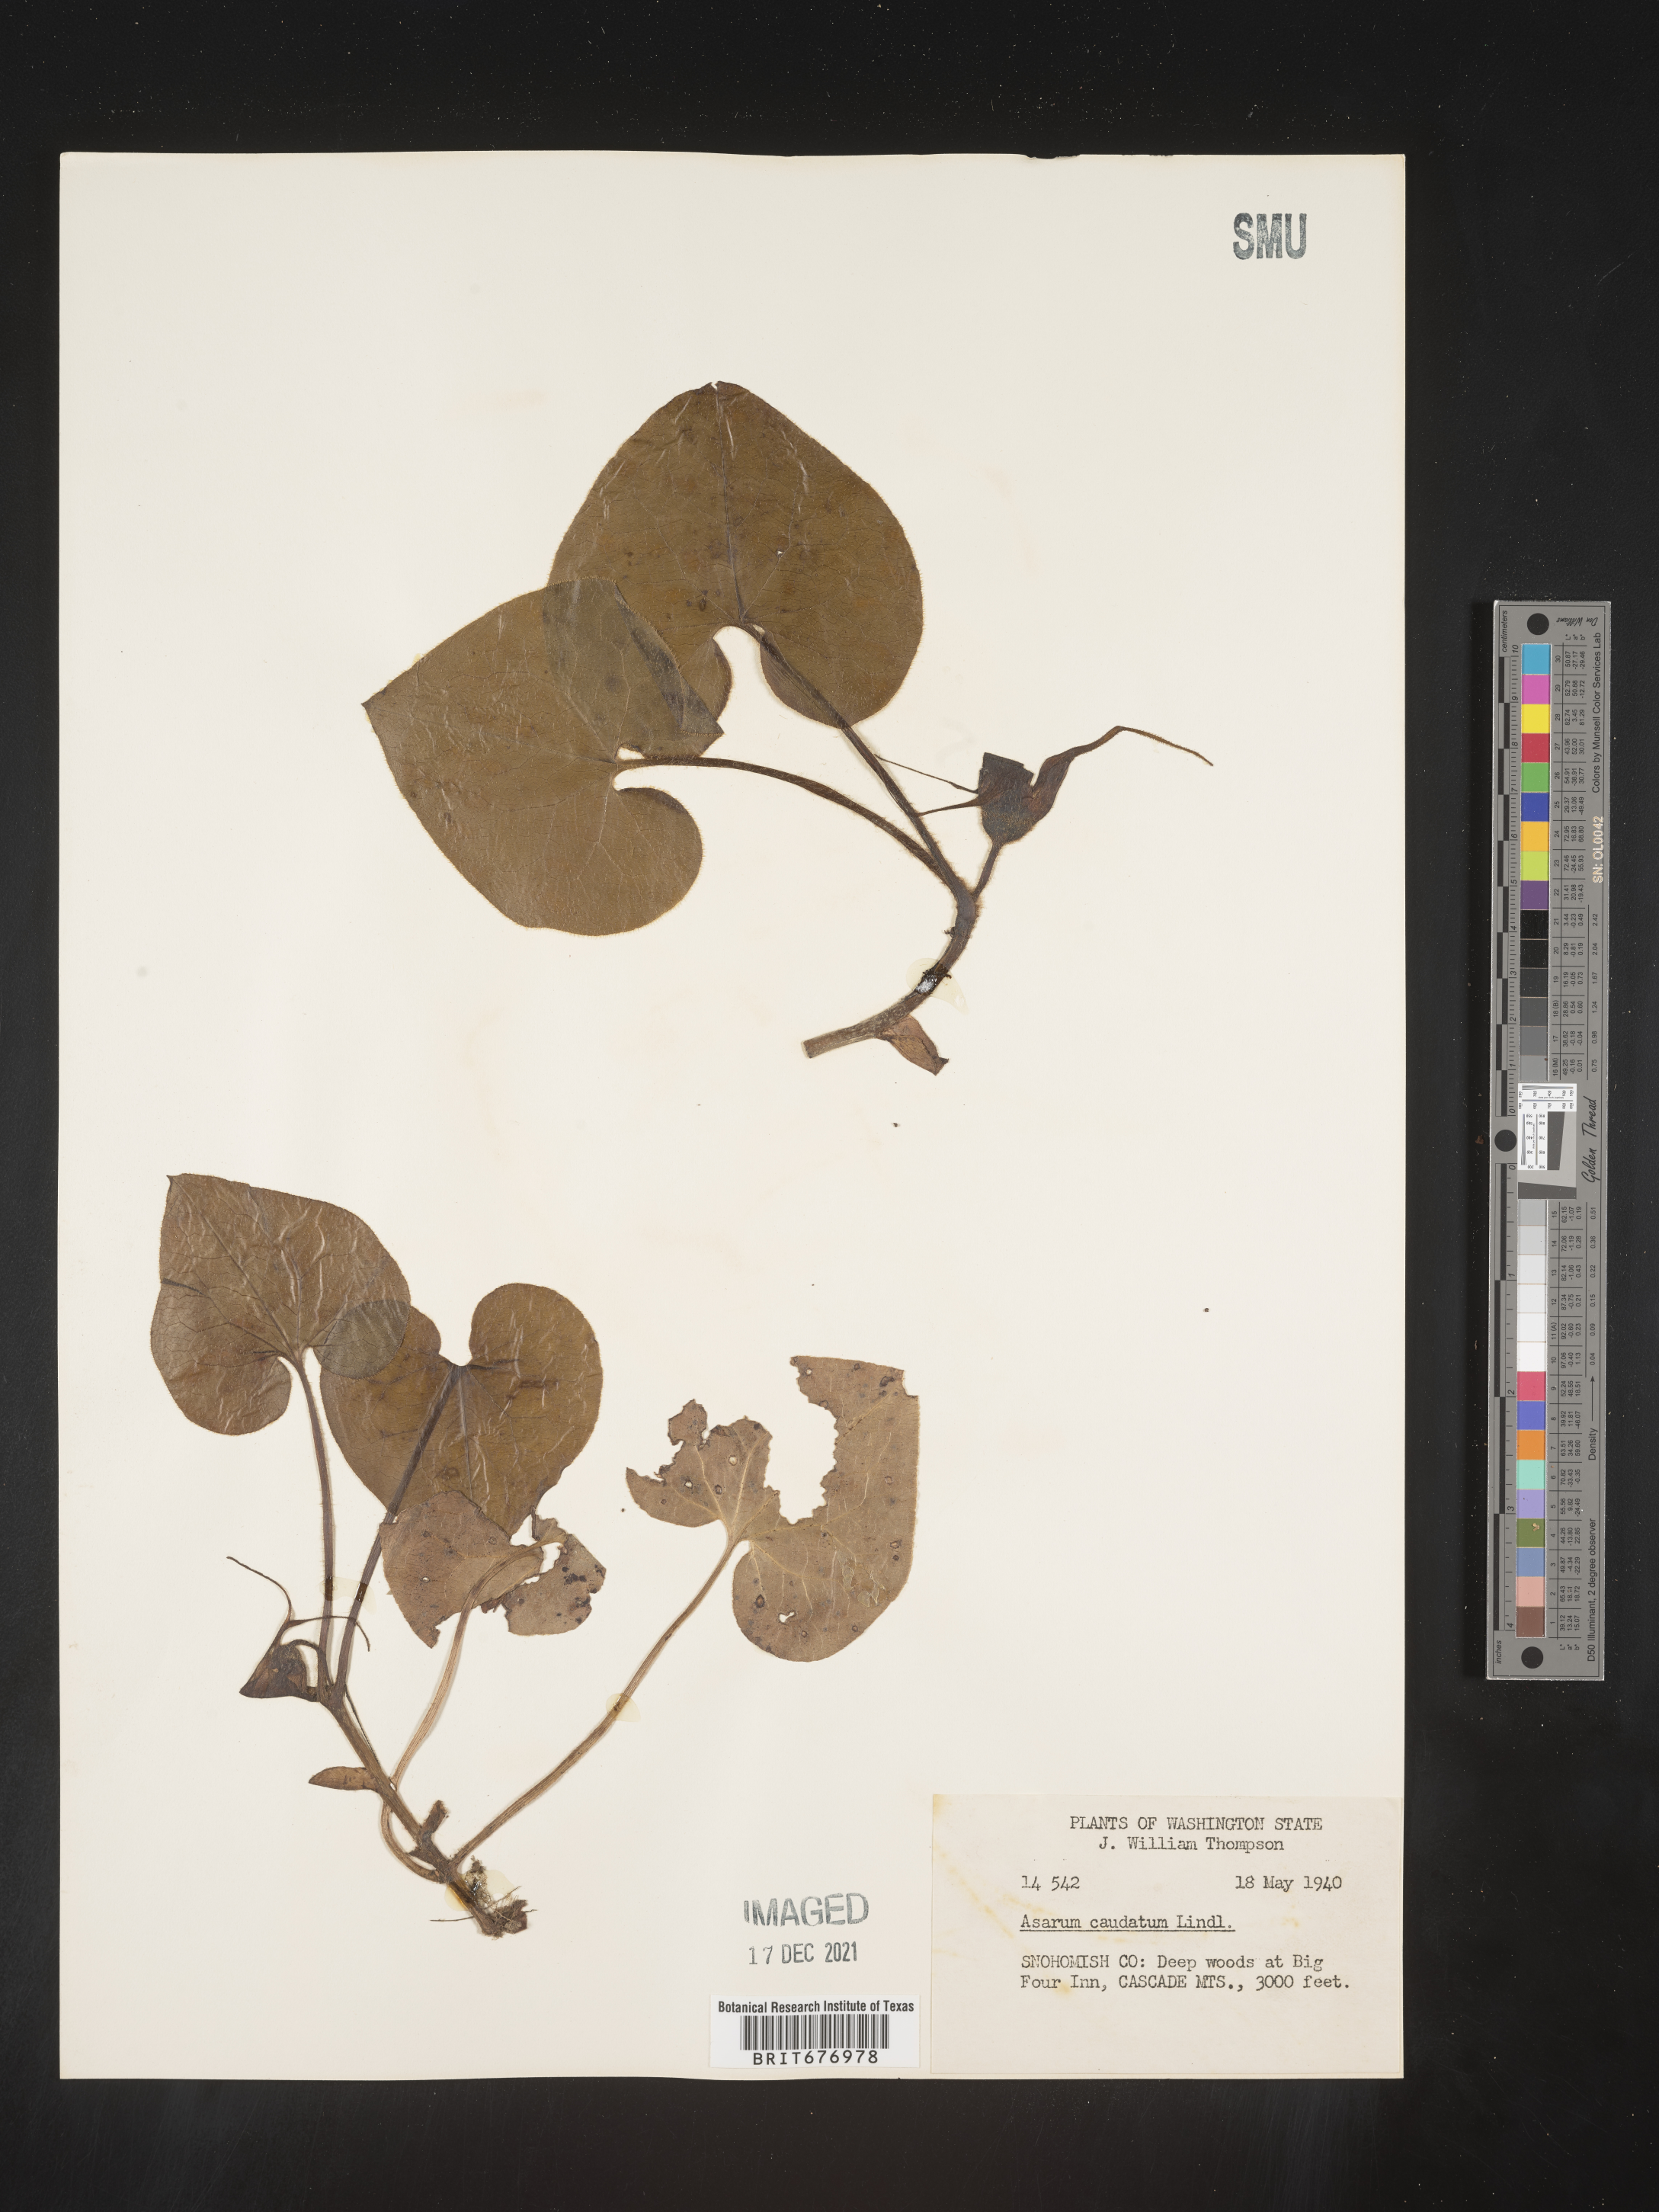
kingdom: Plantae
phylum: Tracheophyta
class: Magnoliopsida
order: Piperales
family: Aristolochiaceae
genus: Asarum
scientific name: Asarum caudatum
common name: Wild ginger
